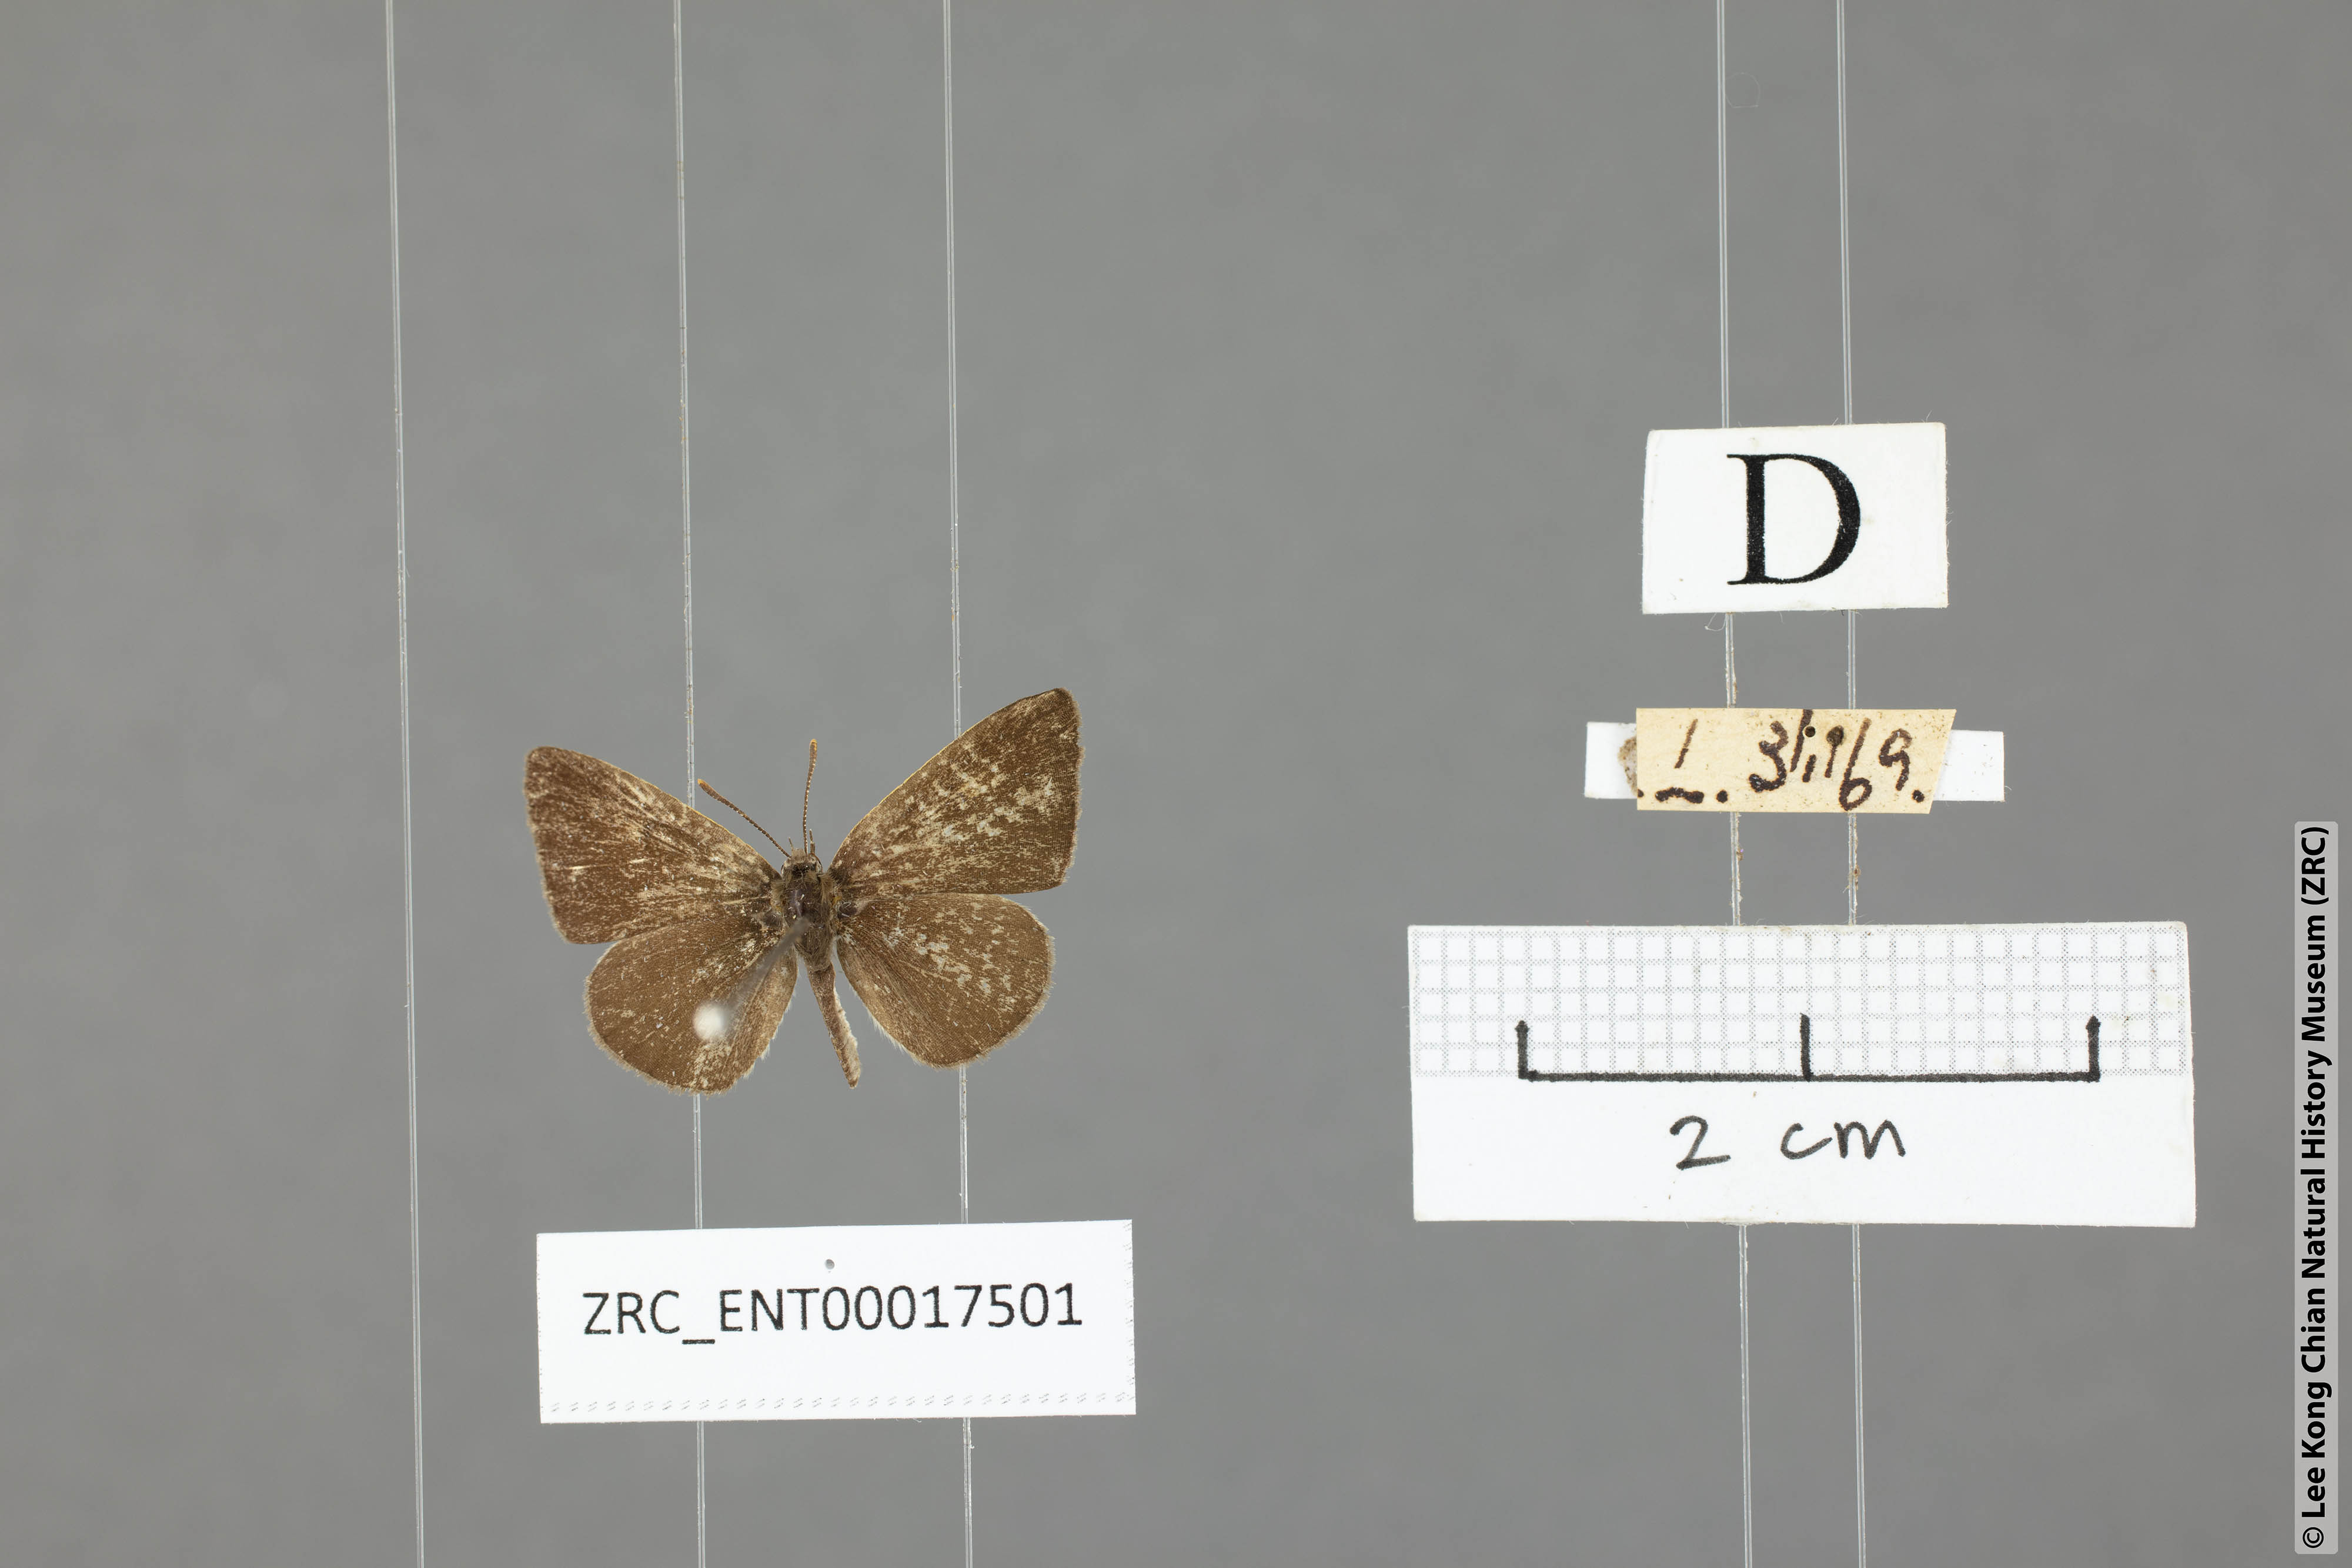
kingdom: Animalia
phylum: Arthropoda
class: Insecta
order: Lepidoptera
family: Lycaenidae
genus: Spalgis
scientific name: Spalgis epeus
